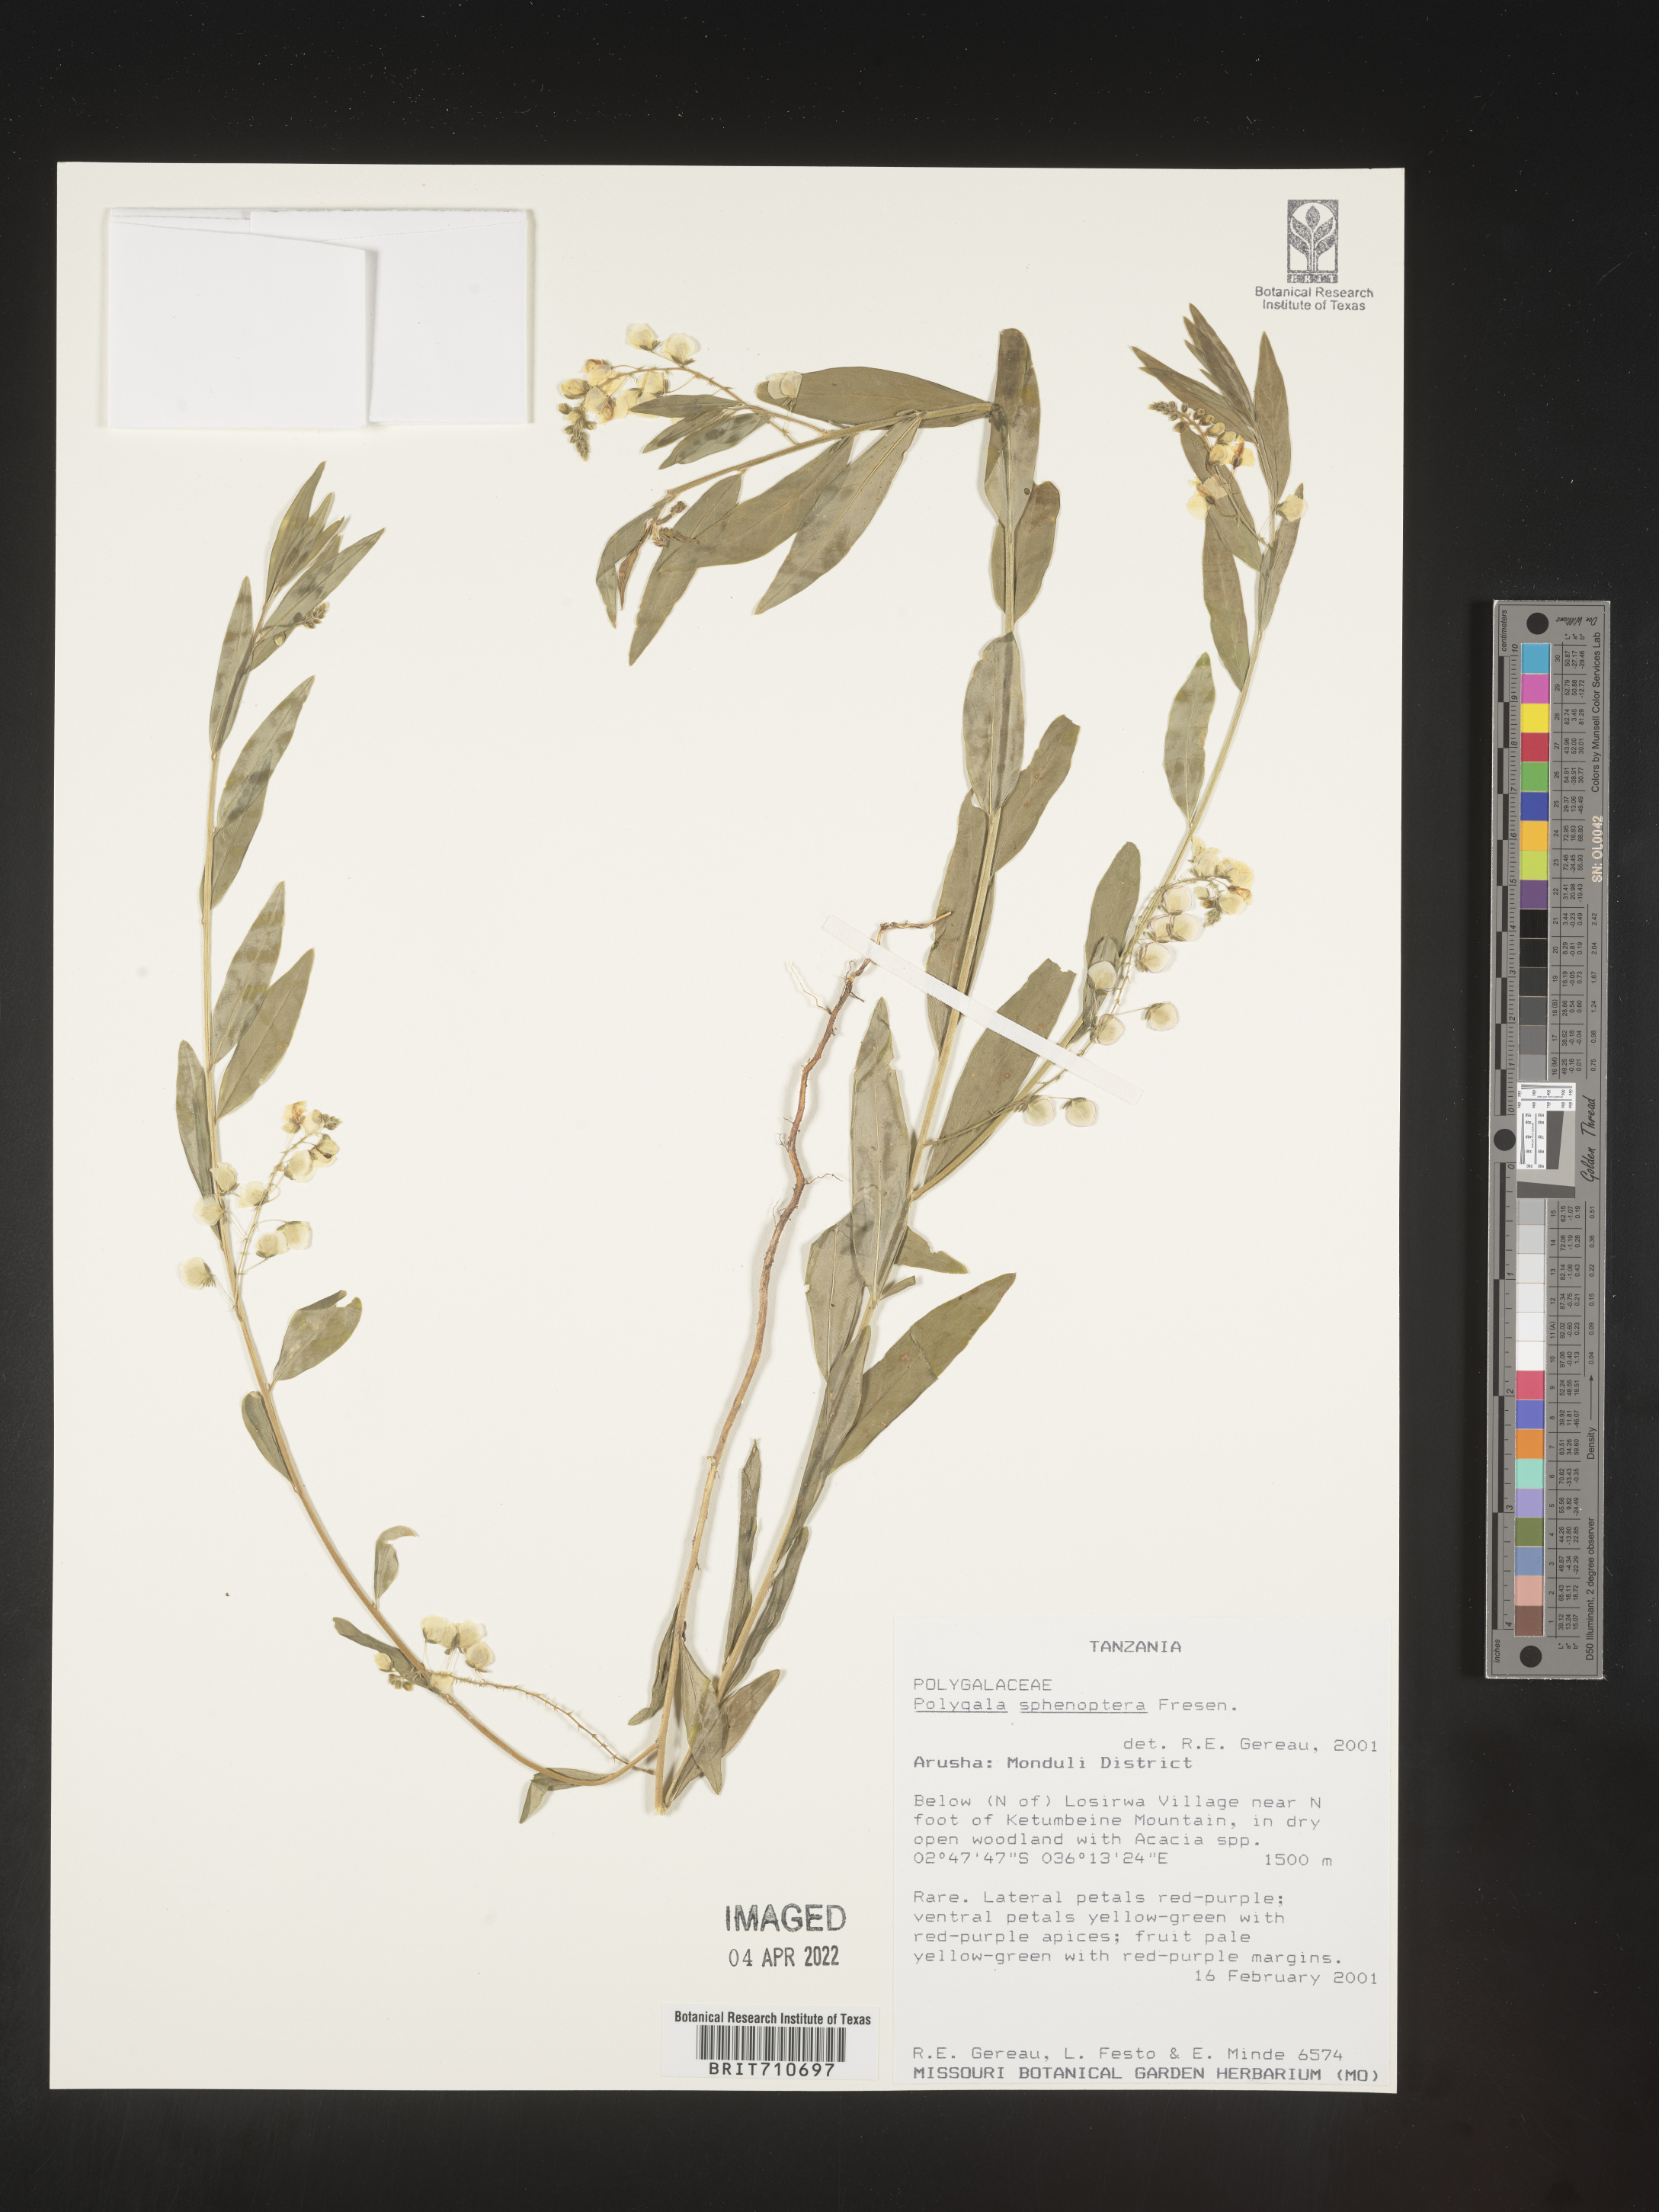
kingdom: Plantae
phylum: Tracheophyta
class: Magnoliopsida
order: Fabales
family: Polygalaceae
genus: Polygala
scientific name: Polygala
